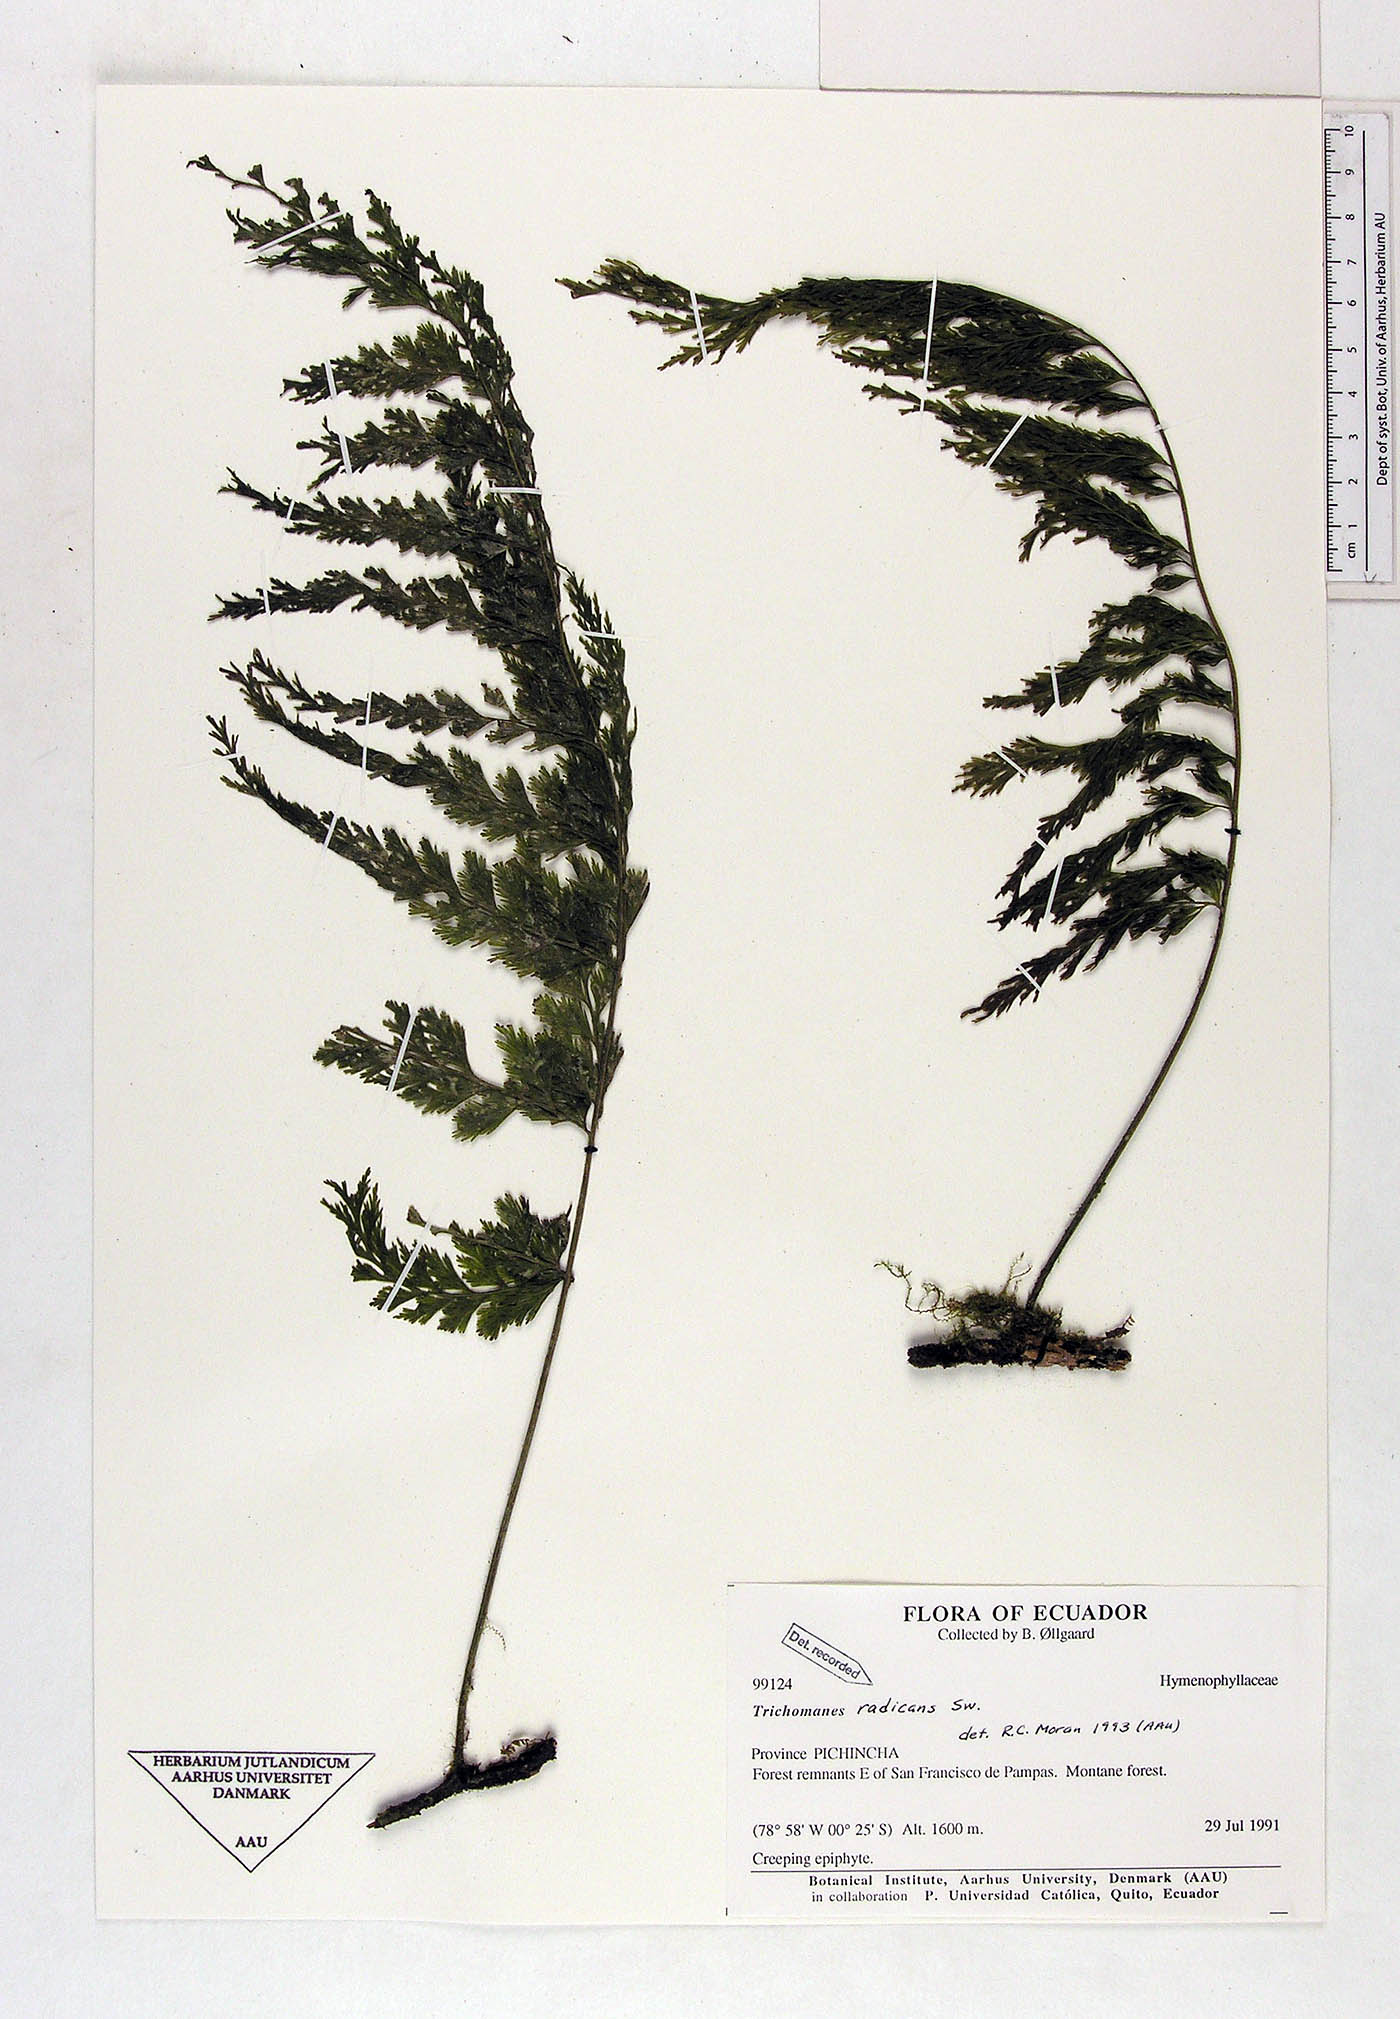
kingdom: Plantae
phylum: Tracheophyta
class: Polypodiopsida
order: Hymenophyllales
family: Hymenophyllaceae
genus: Vandenboschia
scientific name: Vandenboschia radicans
